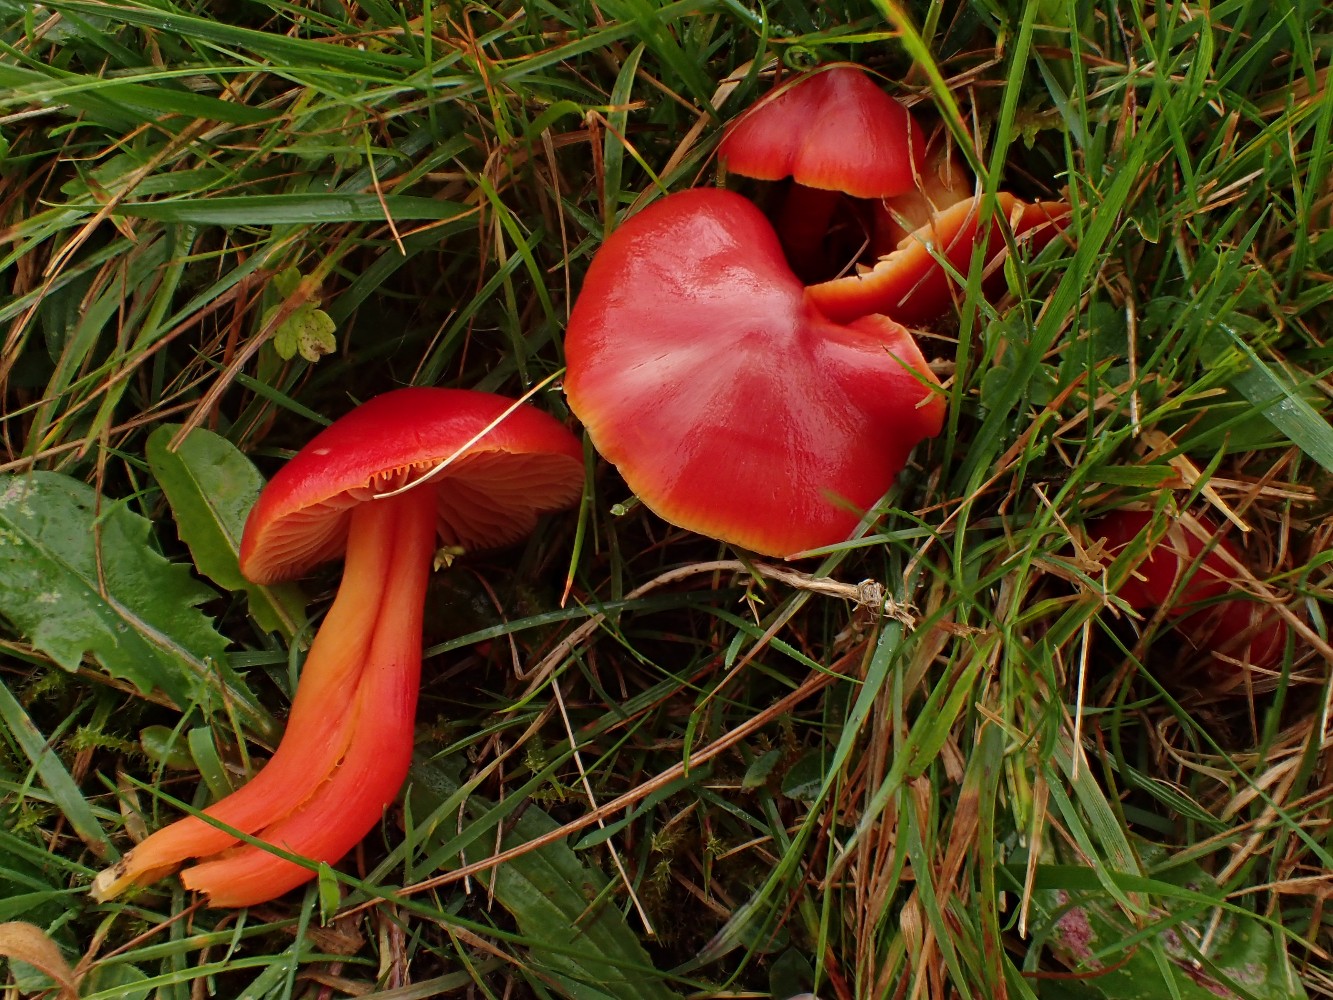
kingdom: Fungi
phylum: Basidiomycota
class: Agaricomycetes
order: Agaricales
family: Hygrophoraceae
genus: Hygrocybe
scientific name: Hygrocybe splendidissima
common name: knaldrød vokshat
